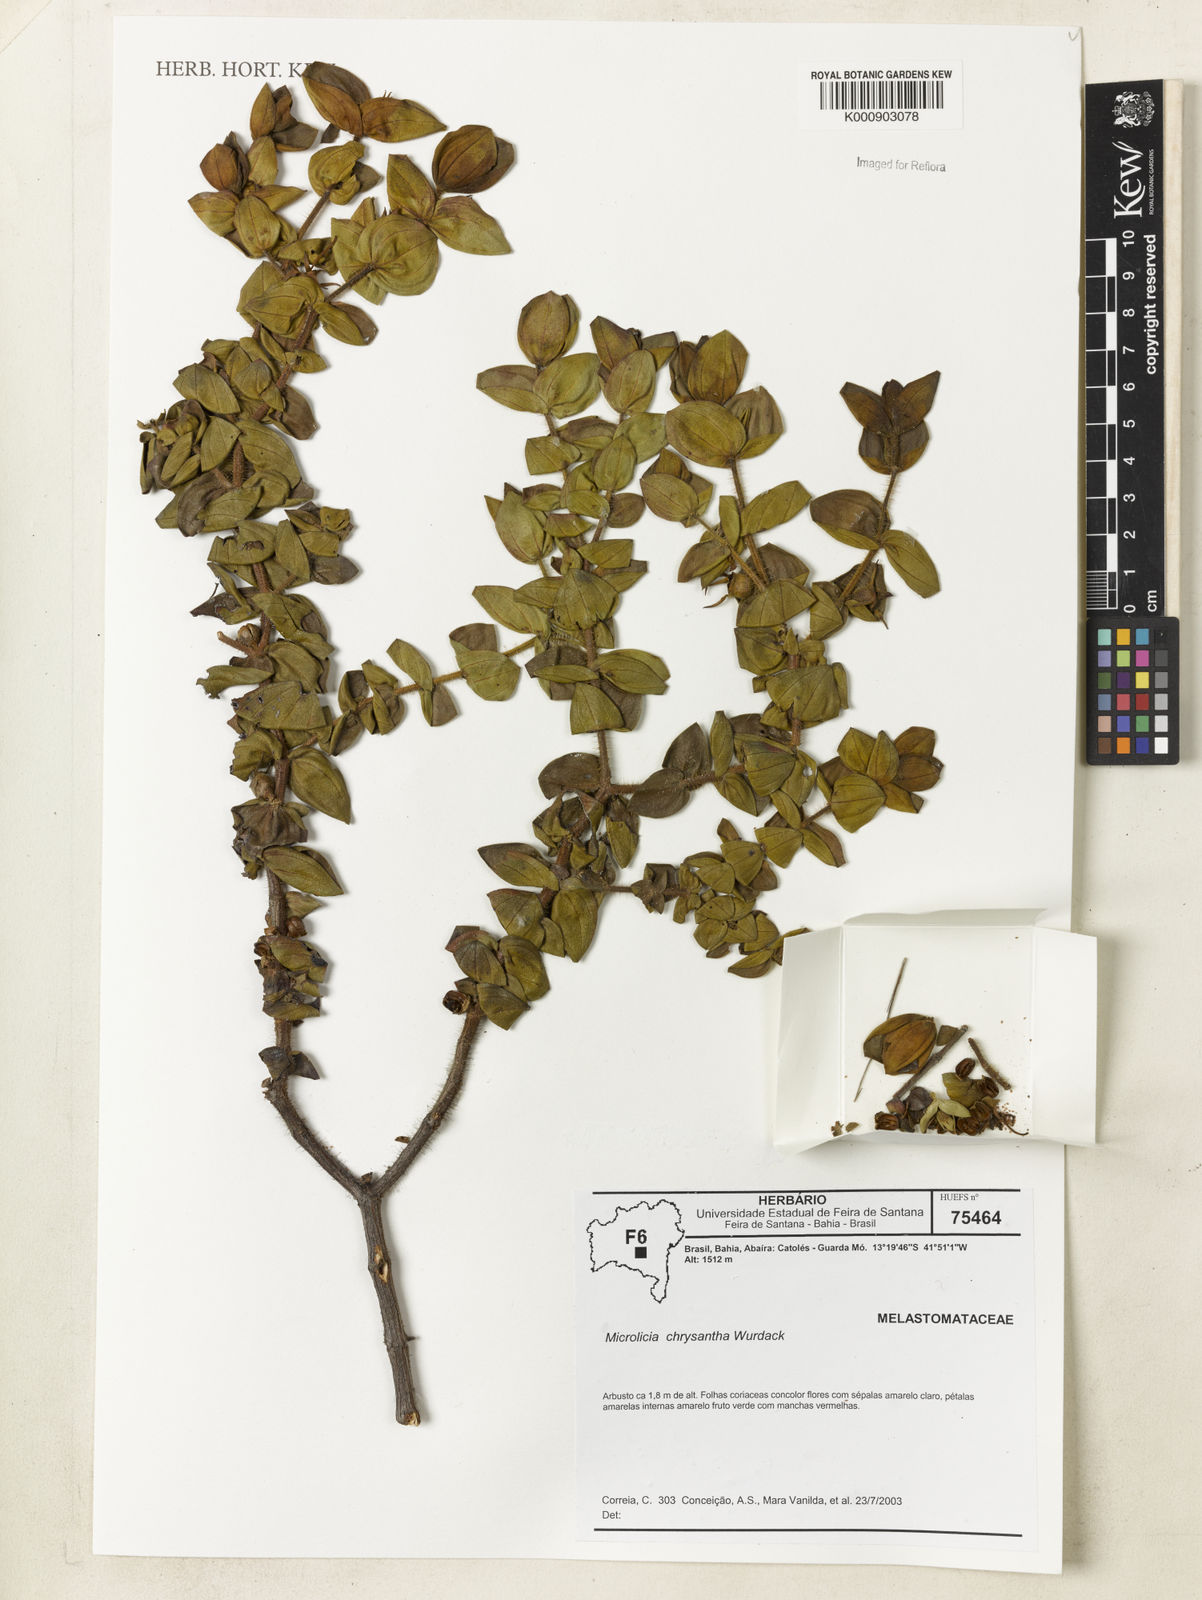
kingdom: Plantae
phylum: Tracheophyta
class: Magnoliopsida
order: Myrtales
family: Melastomataceae
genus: Microlicia
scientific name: Microlicia chrysantha
